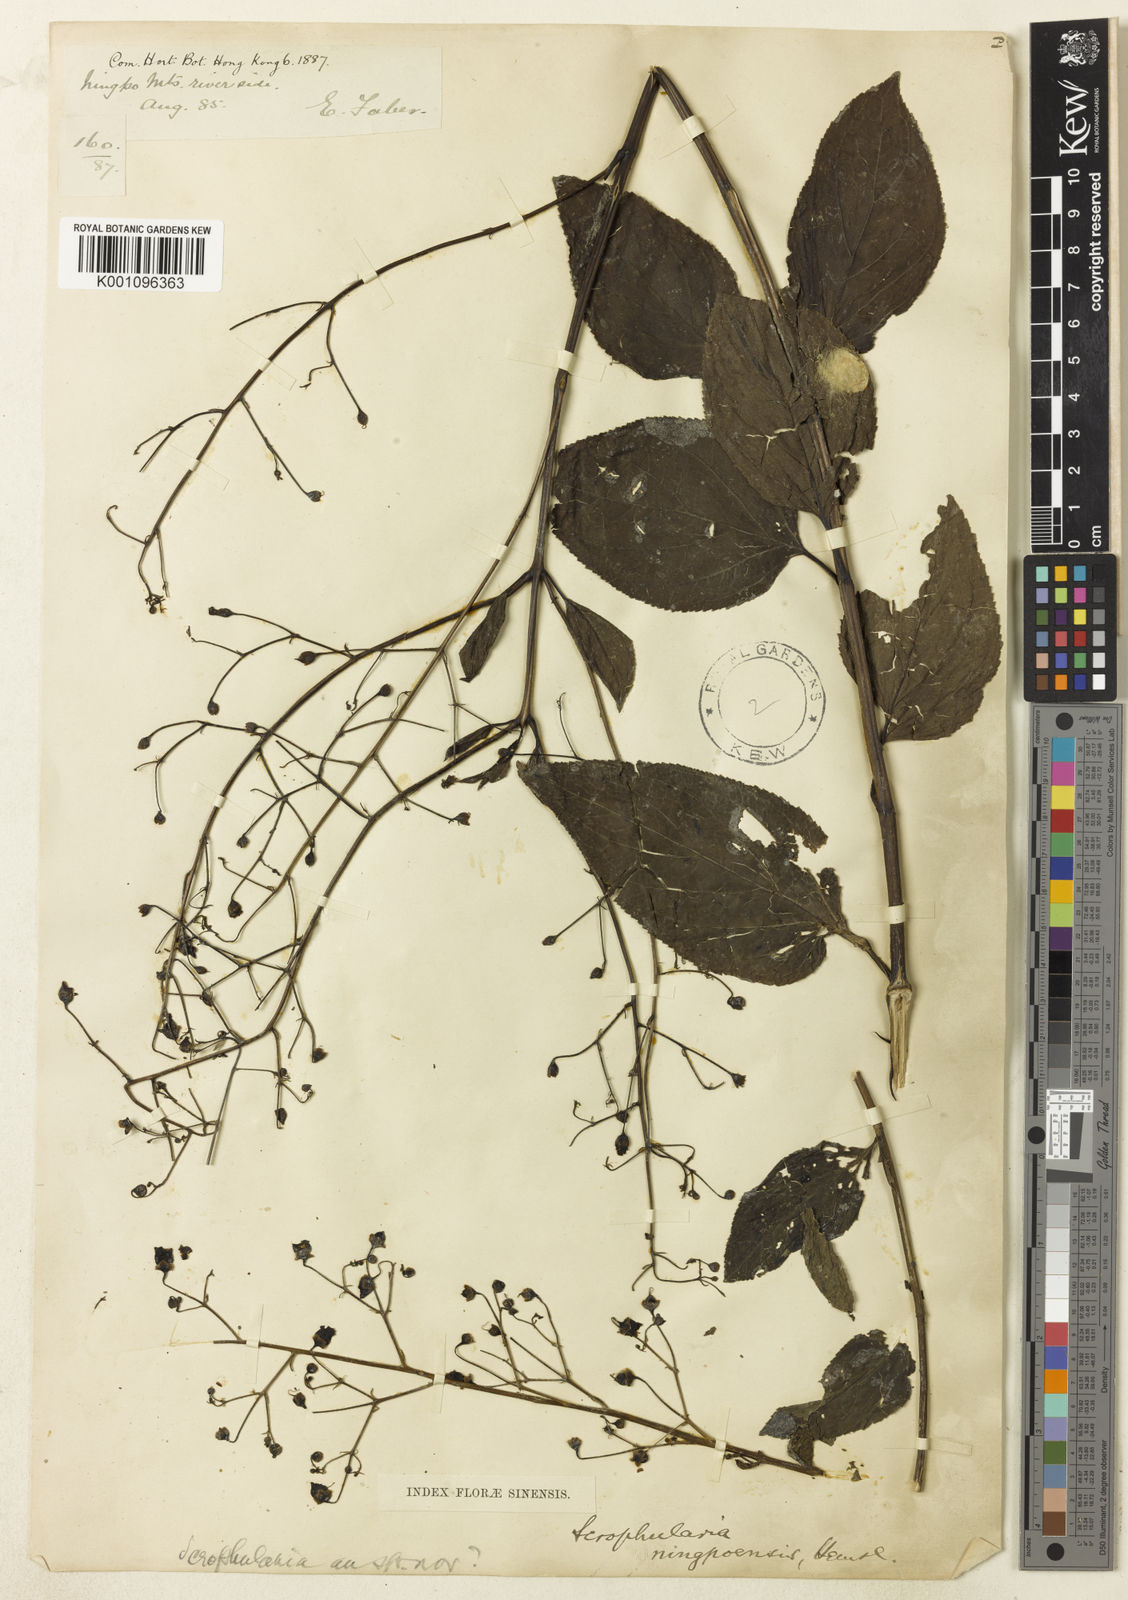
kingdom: Plantae
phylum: Tracheophyta
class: Magnoliopsida
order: Lamiales
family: Scrophulariaceae
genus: Scrophularia
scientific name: Scrophularia ningpoensis
